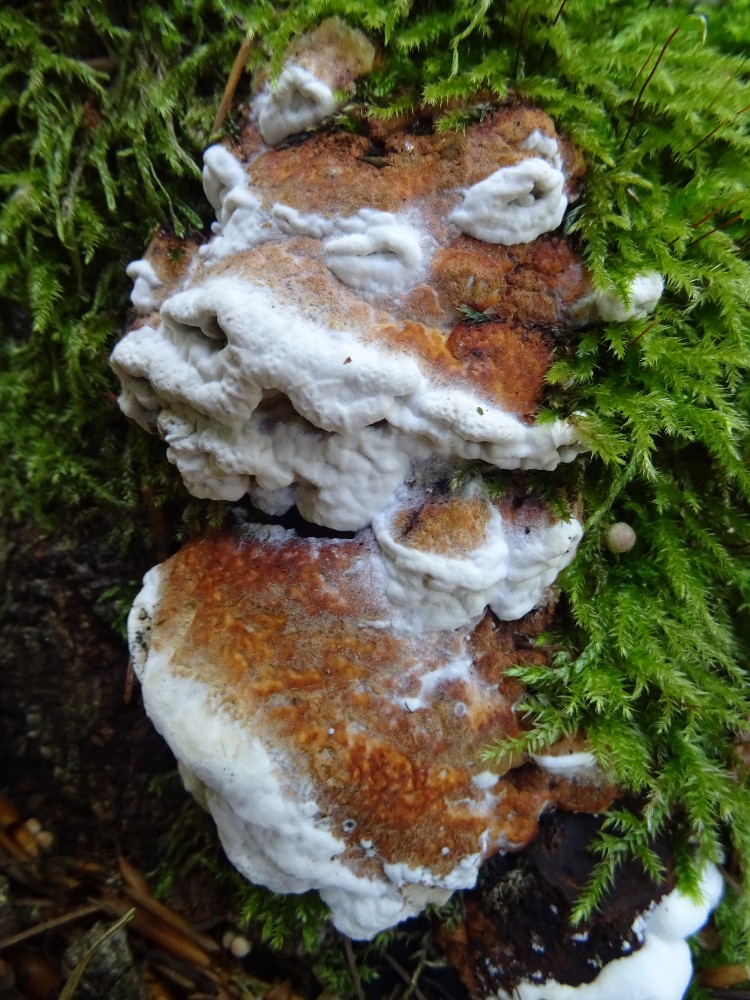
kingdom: Fungi
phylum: Basidiomycota
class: Agaricomycetes
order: Polyporales
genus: Fuscopostia
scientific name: Fuscopostia fragilis
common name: brunende kødporesvamp
